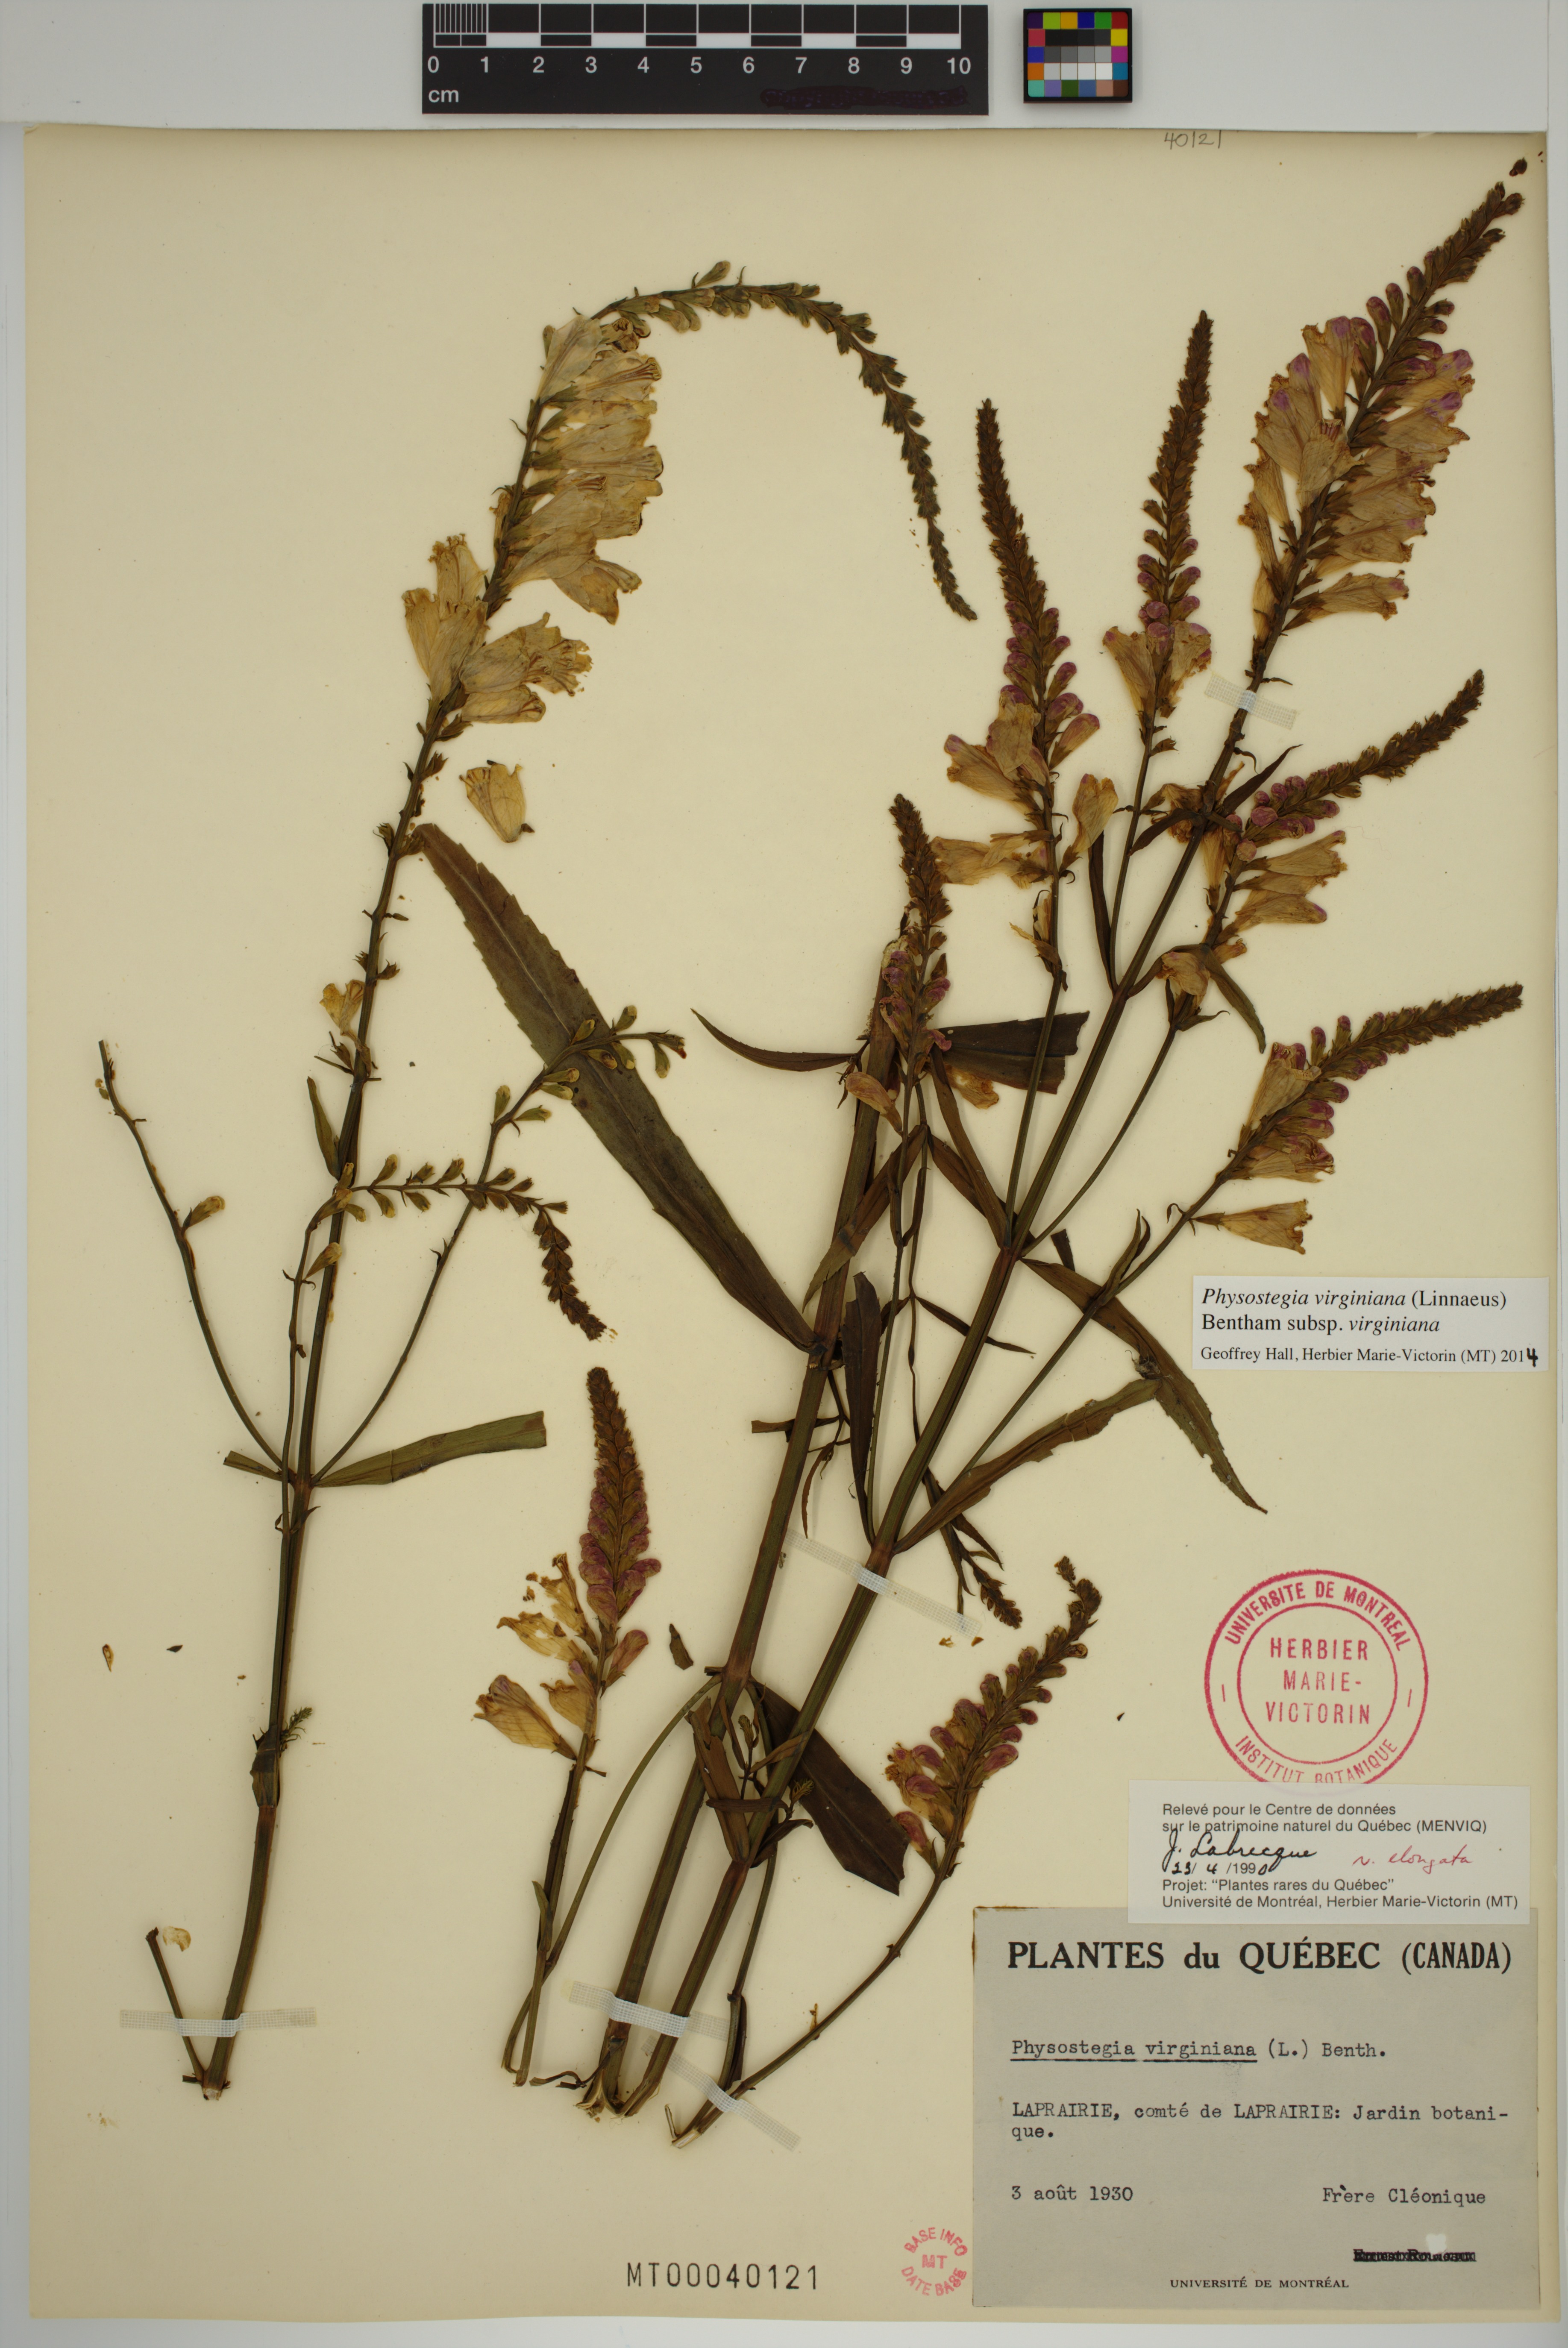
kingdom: Plantae
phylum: Tracheophyta
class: Magnoliopsida
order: Lamiales
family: Lamiaceae
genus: Physostegia
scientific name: Physostegia virginiana
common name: Obedient-plant
